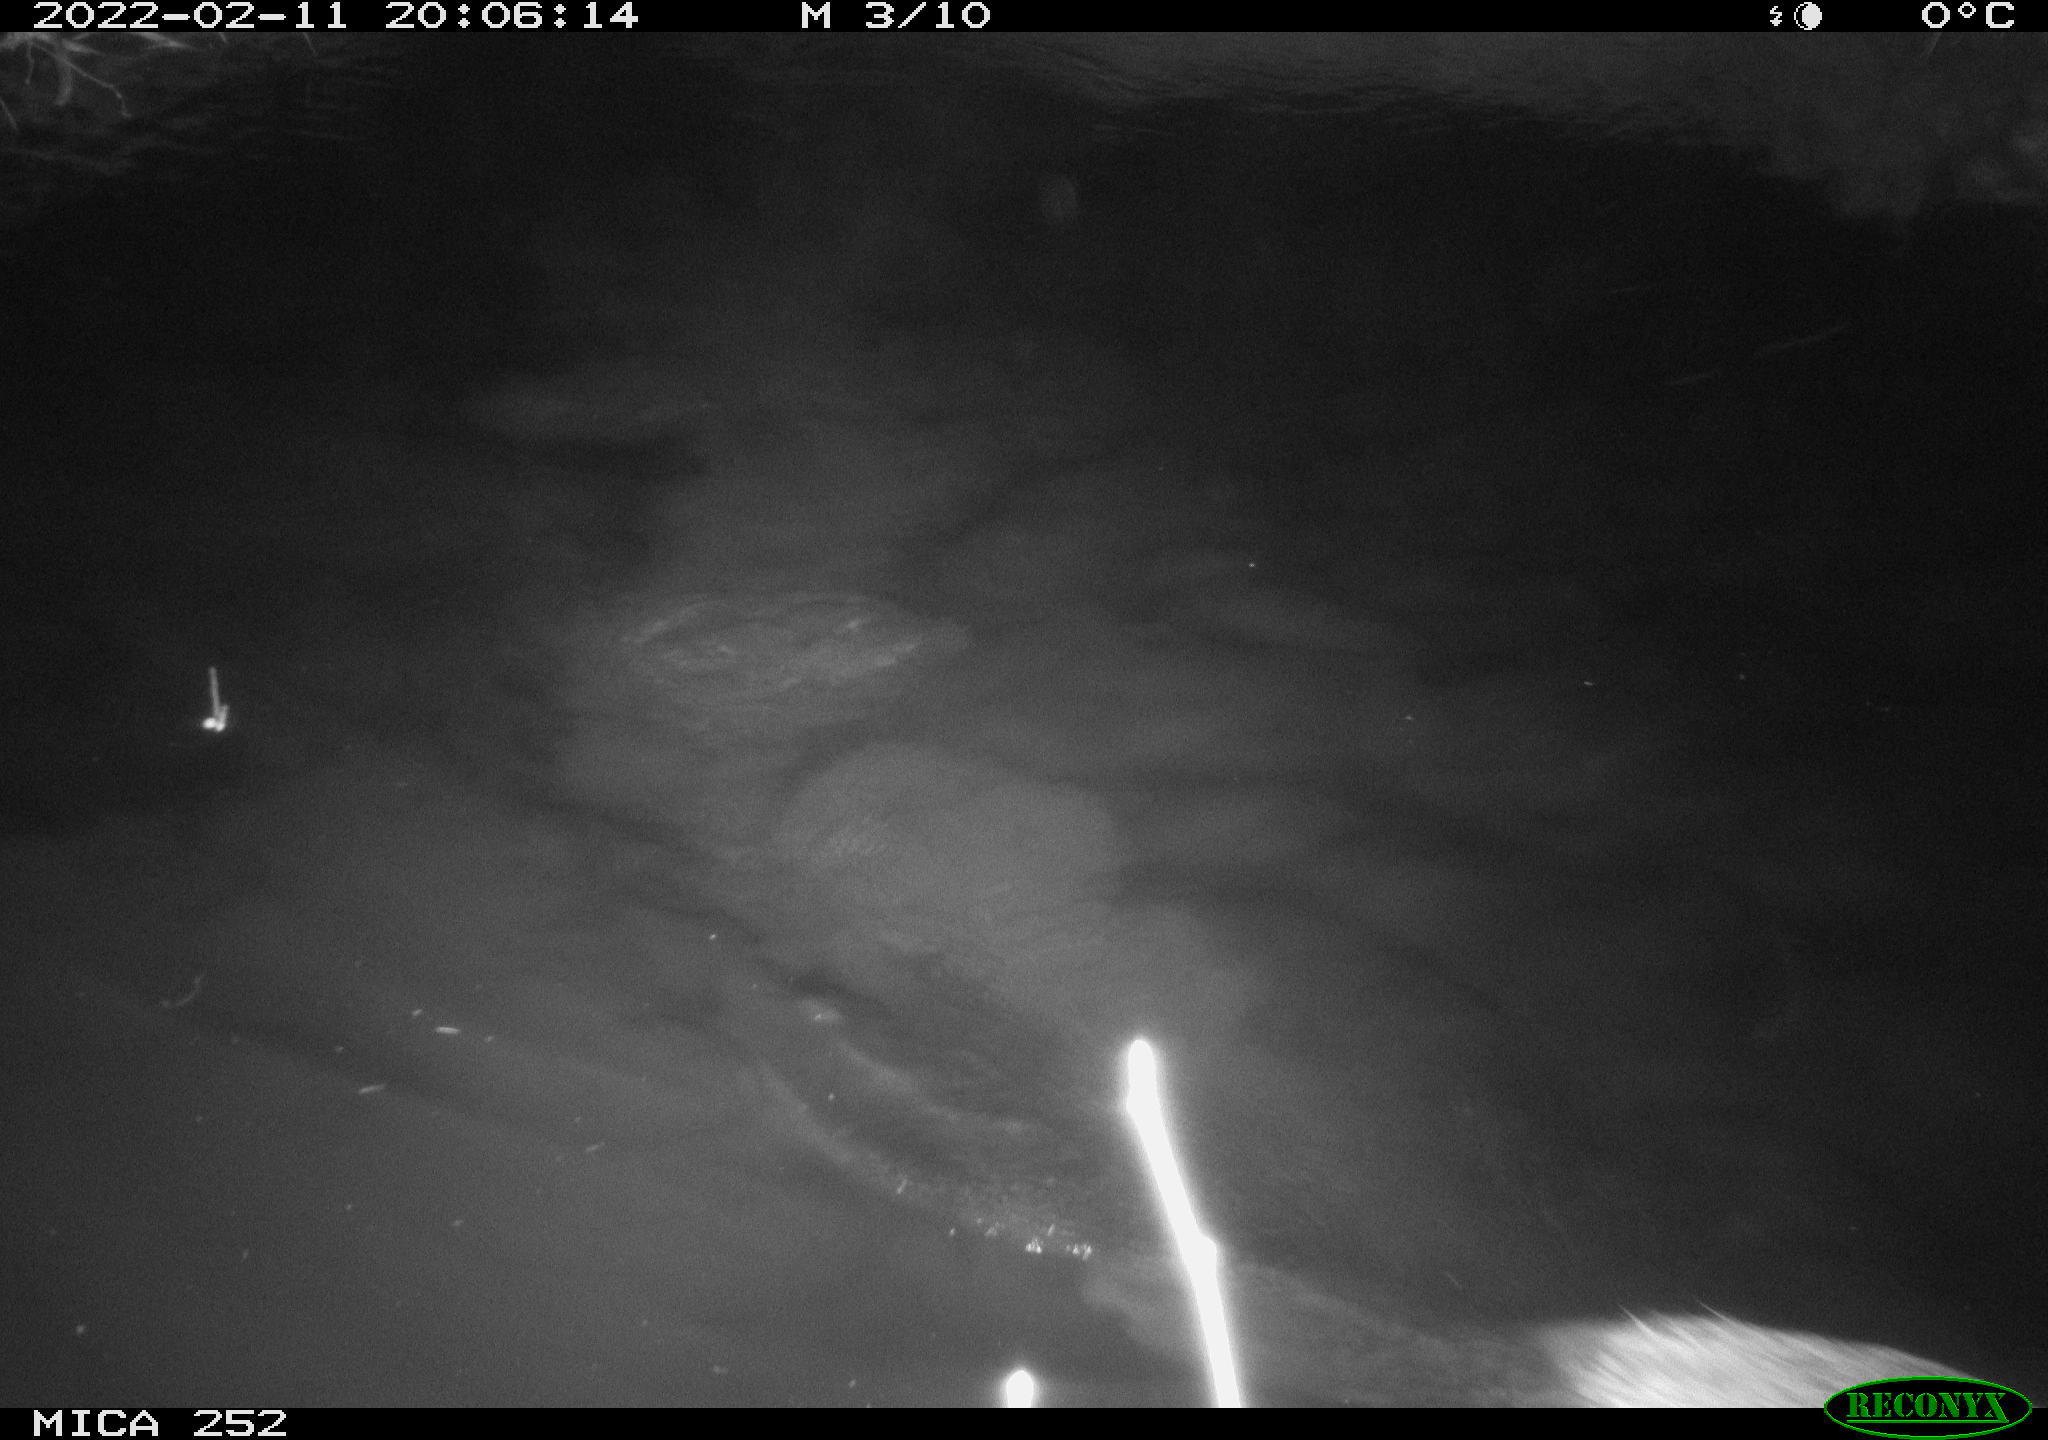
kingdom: Animalia
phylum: Chordata
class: Mammalia
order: Rodentia
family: Castoridae
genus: Castor
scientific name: Castor fiber
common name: Eurasian beaver
